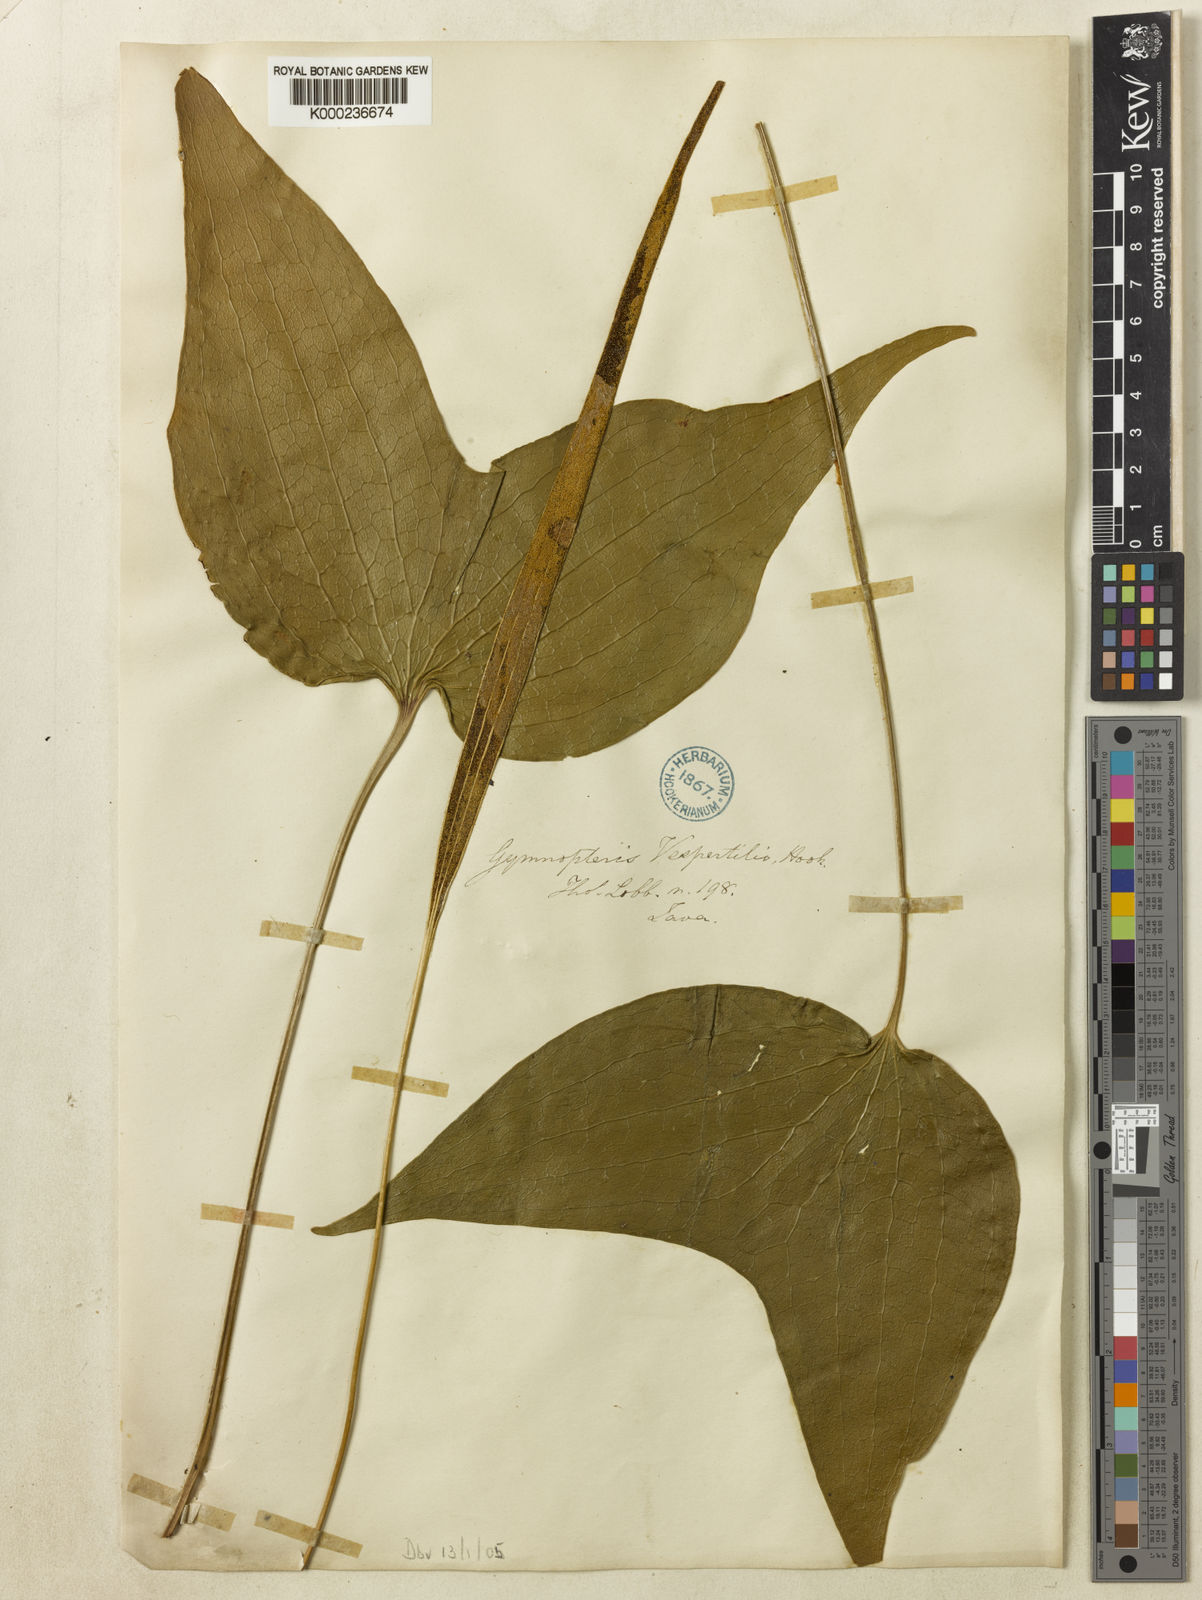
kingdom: Plantae
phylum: Tracheophyta
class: Polypodiopsida
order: Gleicheniales
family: Dipteridaceae
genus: Cheiropleuria
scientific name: Cheiropleuria bicuspis
